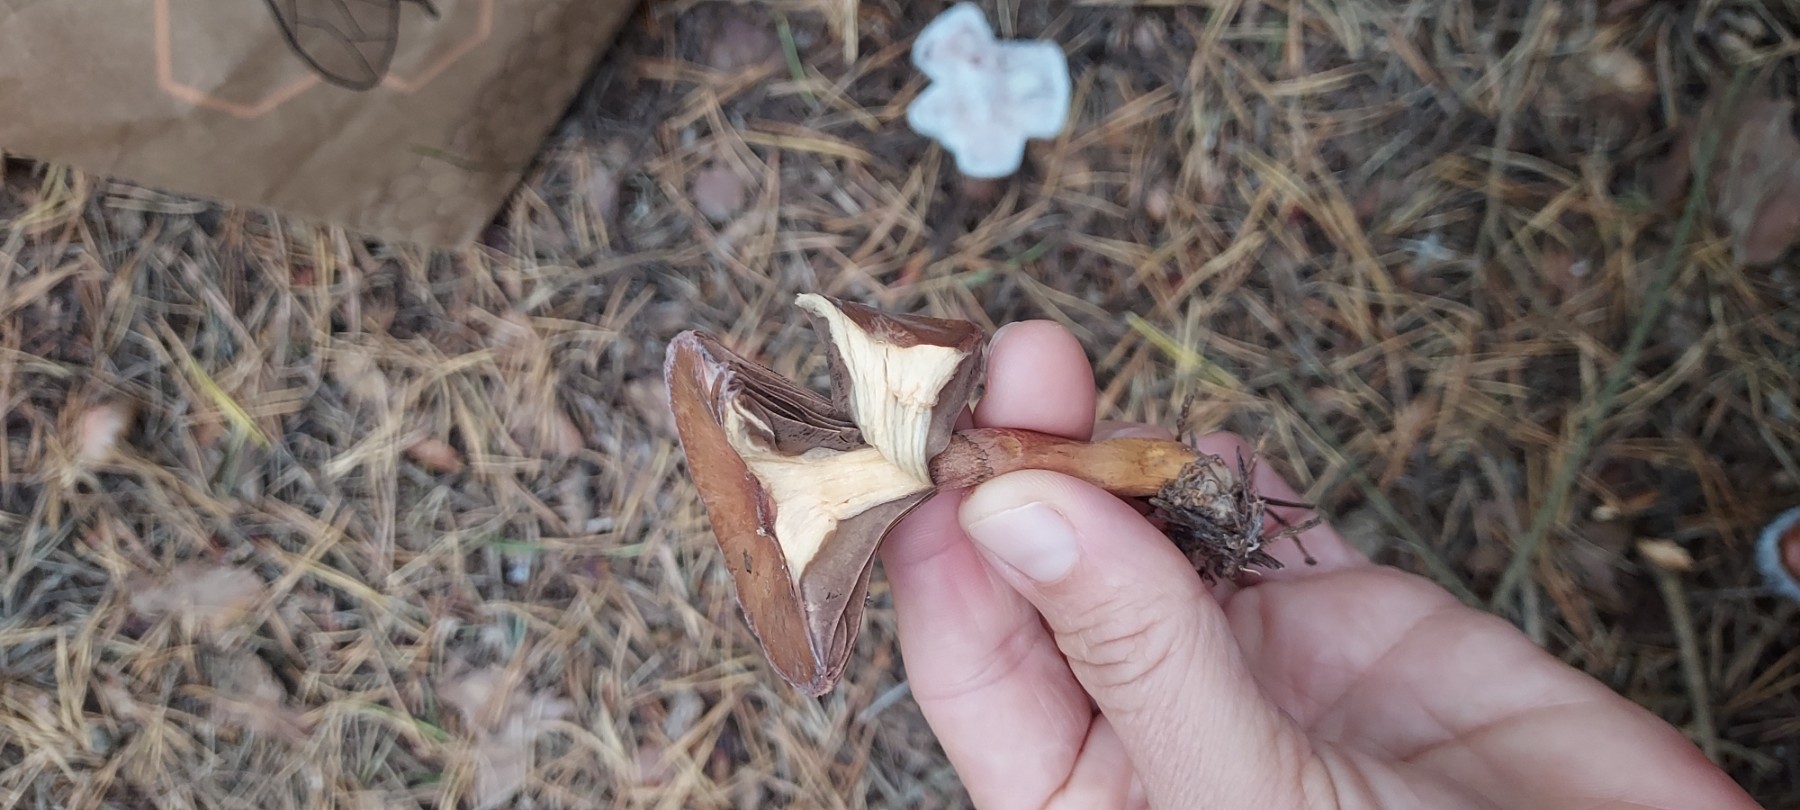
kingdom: Fungi
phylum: Basidiomycota
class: Agaricomycetes
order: Boletales
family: Gomphidiaceae
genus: Chroogomphus
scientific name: Chroogomphus
